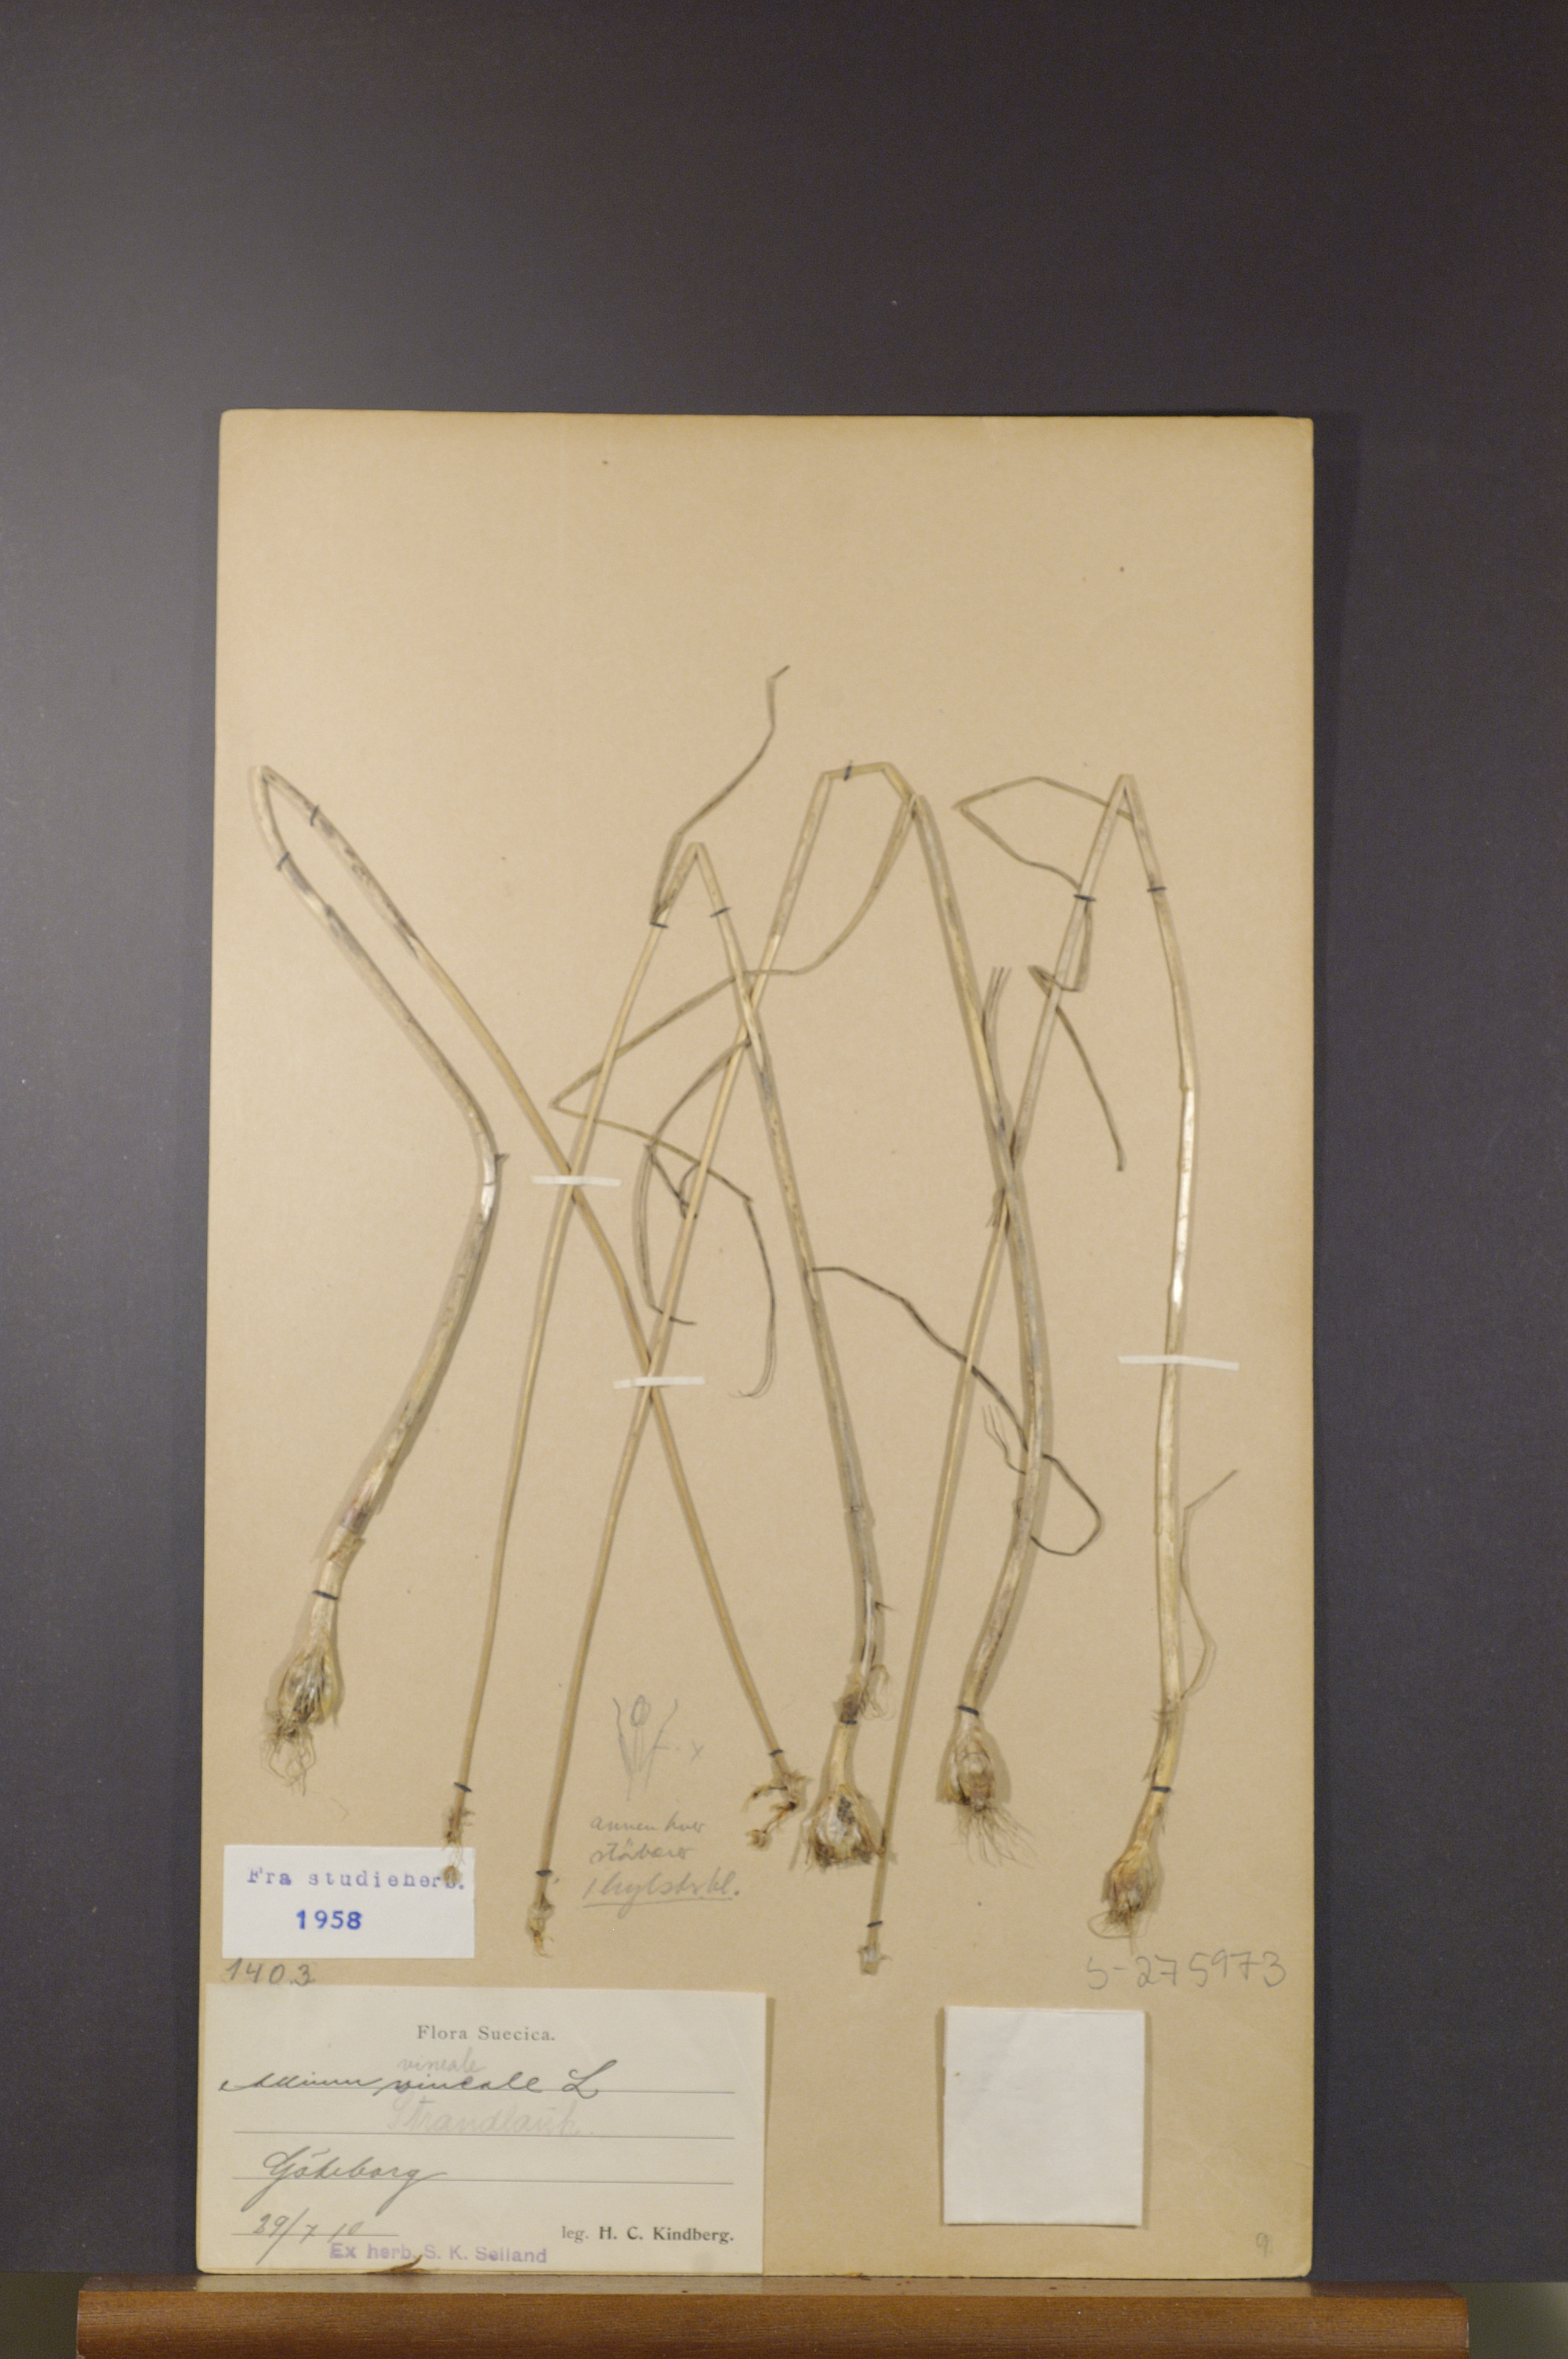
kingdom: Plantae
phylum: Tracheophyta
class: Liliopsida
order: Asparagales
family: Amaryllidaceae
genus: Allium
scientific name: Allium vineale
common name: Crow garlic
